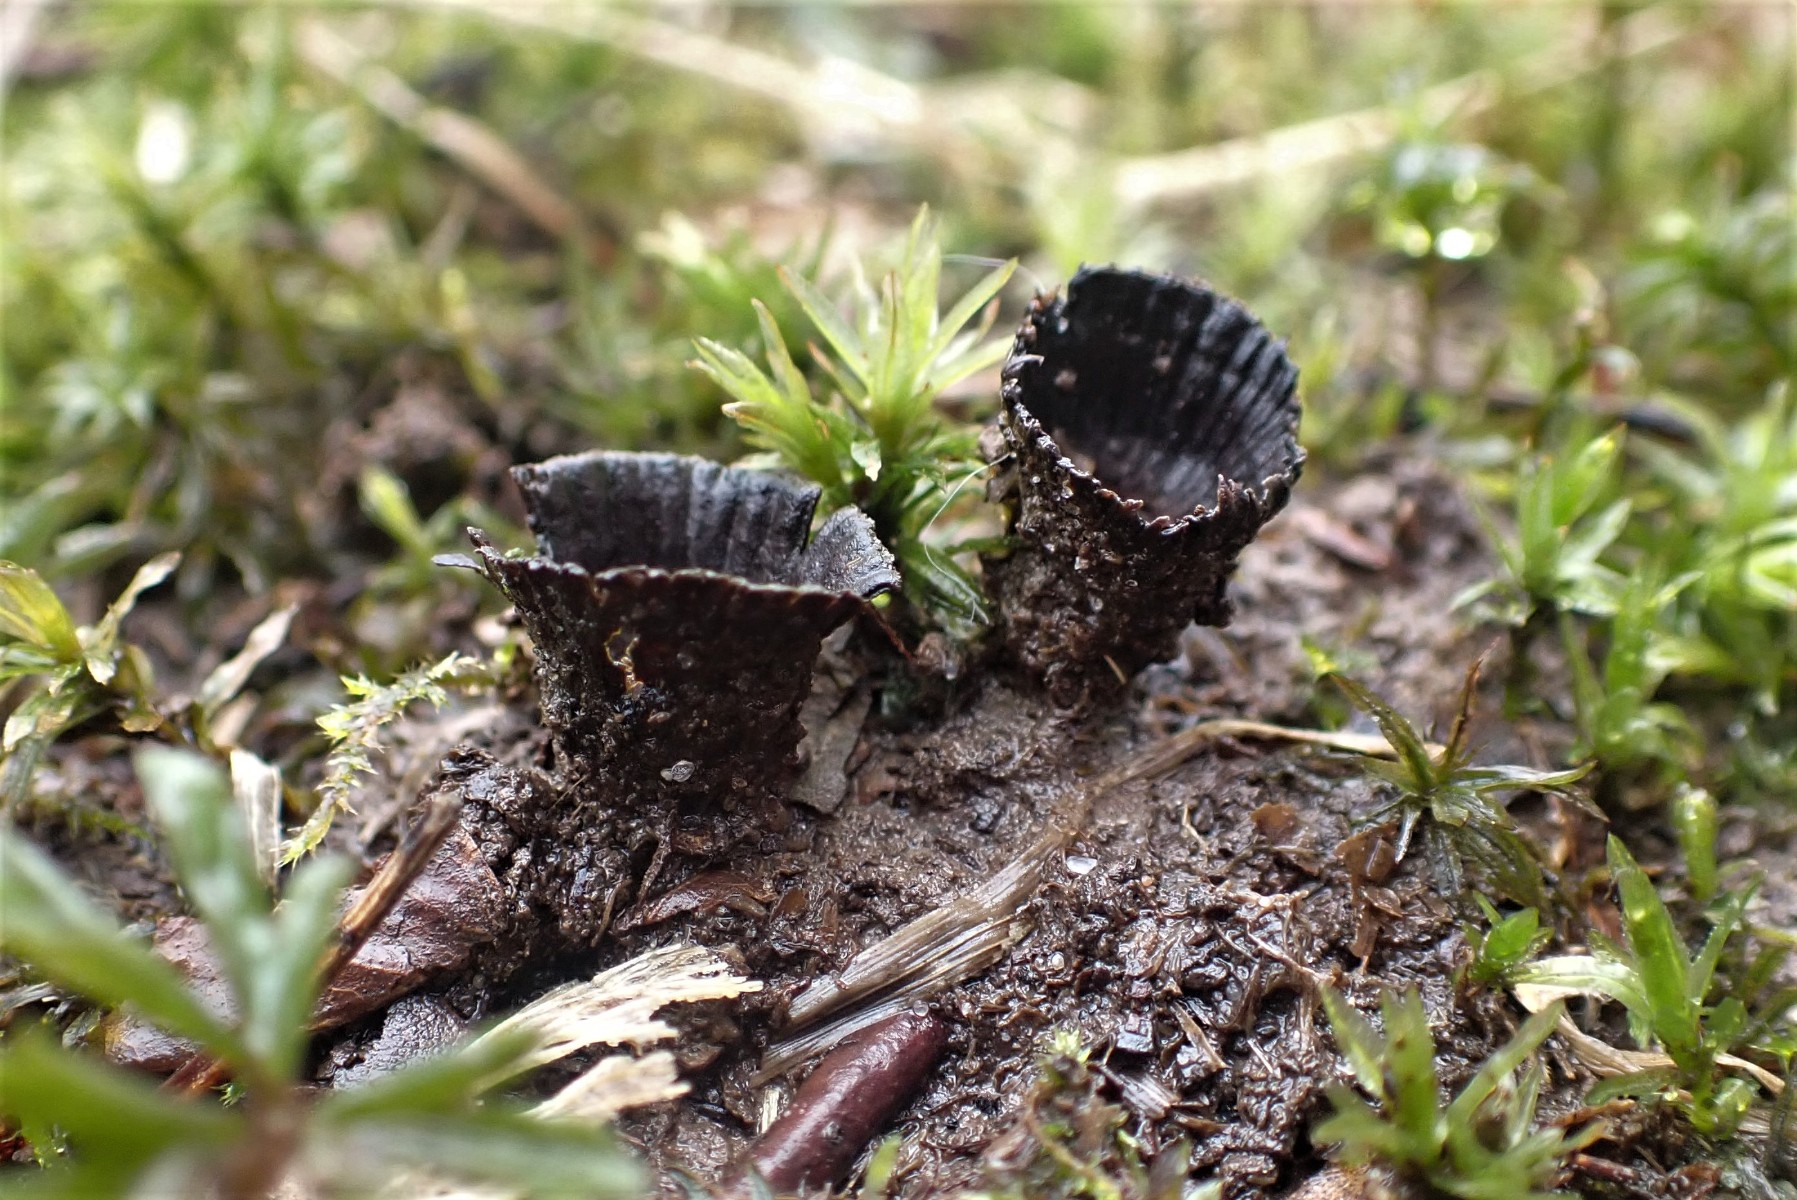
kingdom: Fungi
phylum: Basidiomycota
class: Agaricomycetes
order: Agaricales
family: Agaricaceae
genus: Cyathus
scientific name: Cyathus striatus
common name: stribet redesvamp
